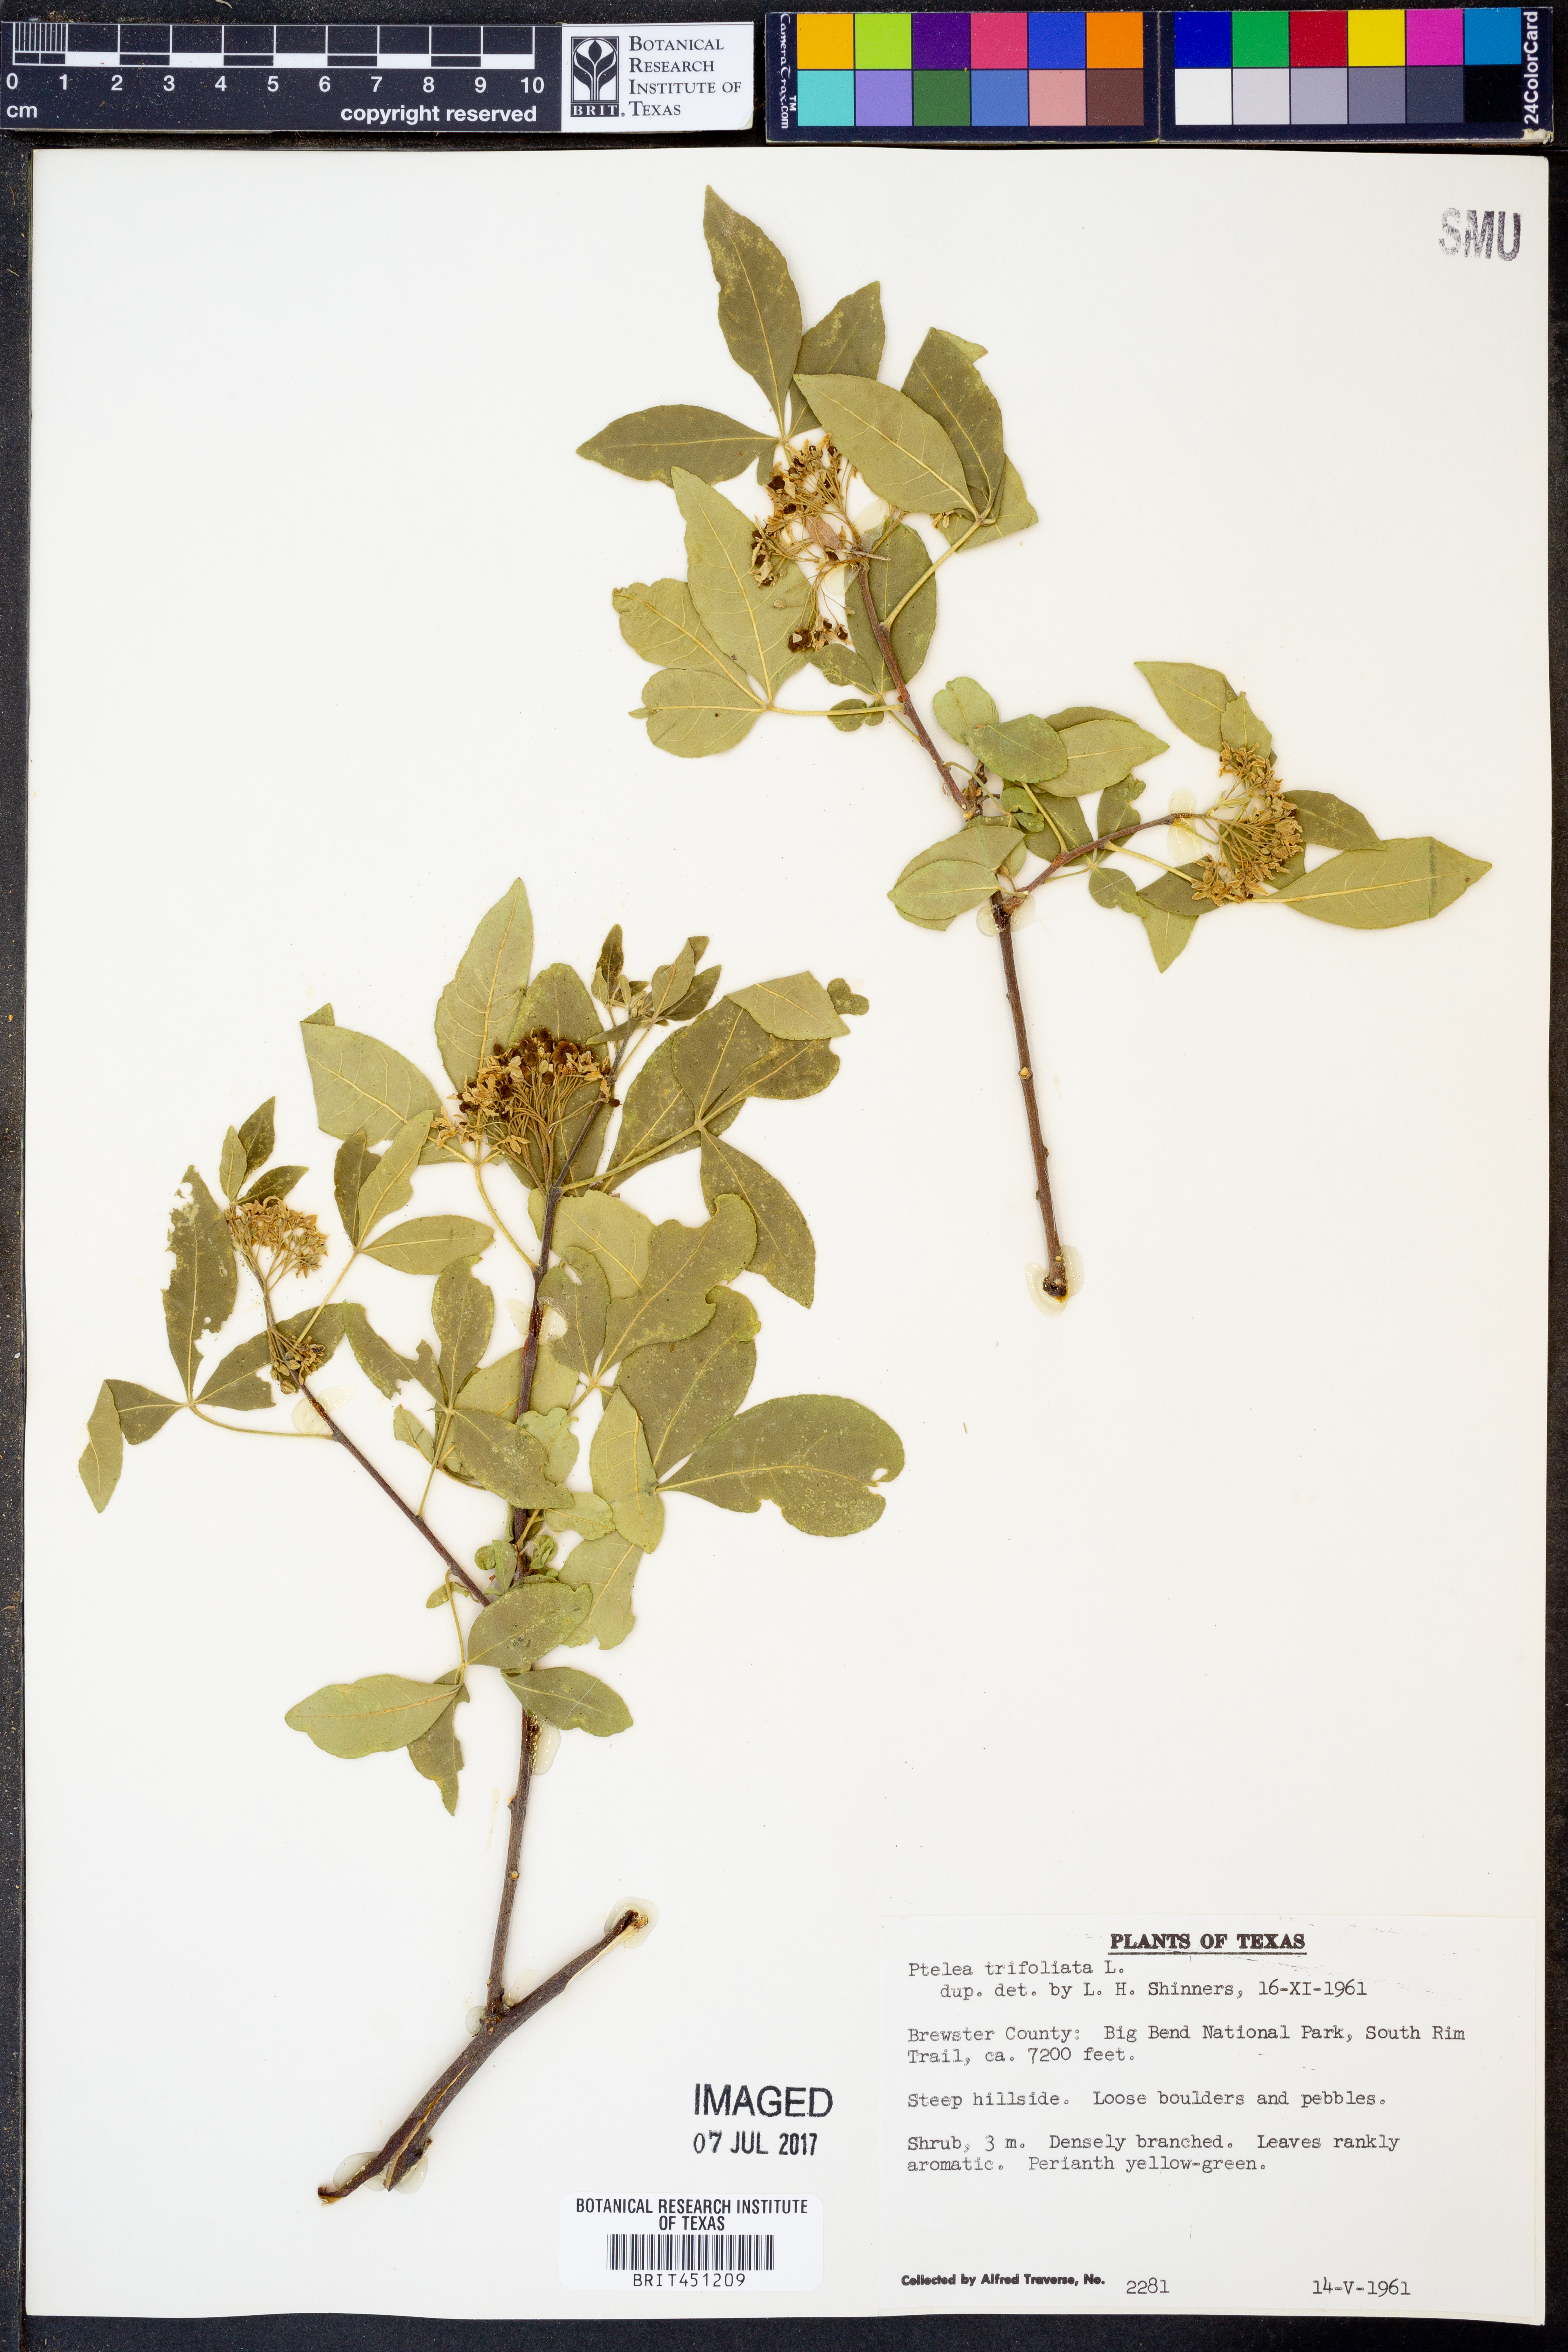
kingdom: Plantae
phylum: Tracheophyta
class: Magnoliopsida
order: Sapindales
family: Rutaceae
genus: Ptelea
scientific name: Ptelea trifoliata
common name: Common hop-tree
